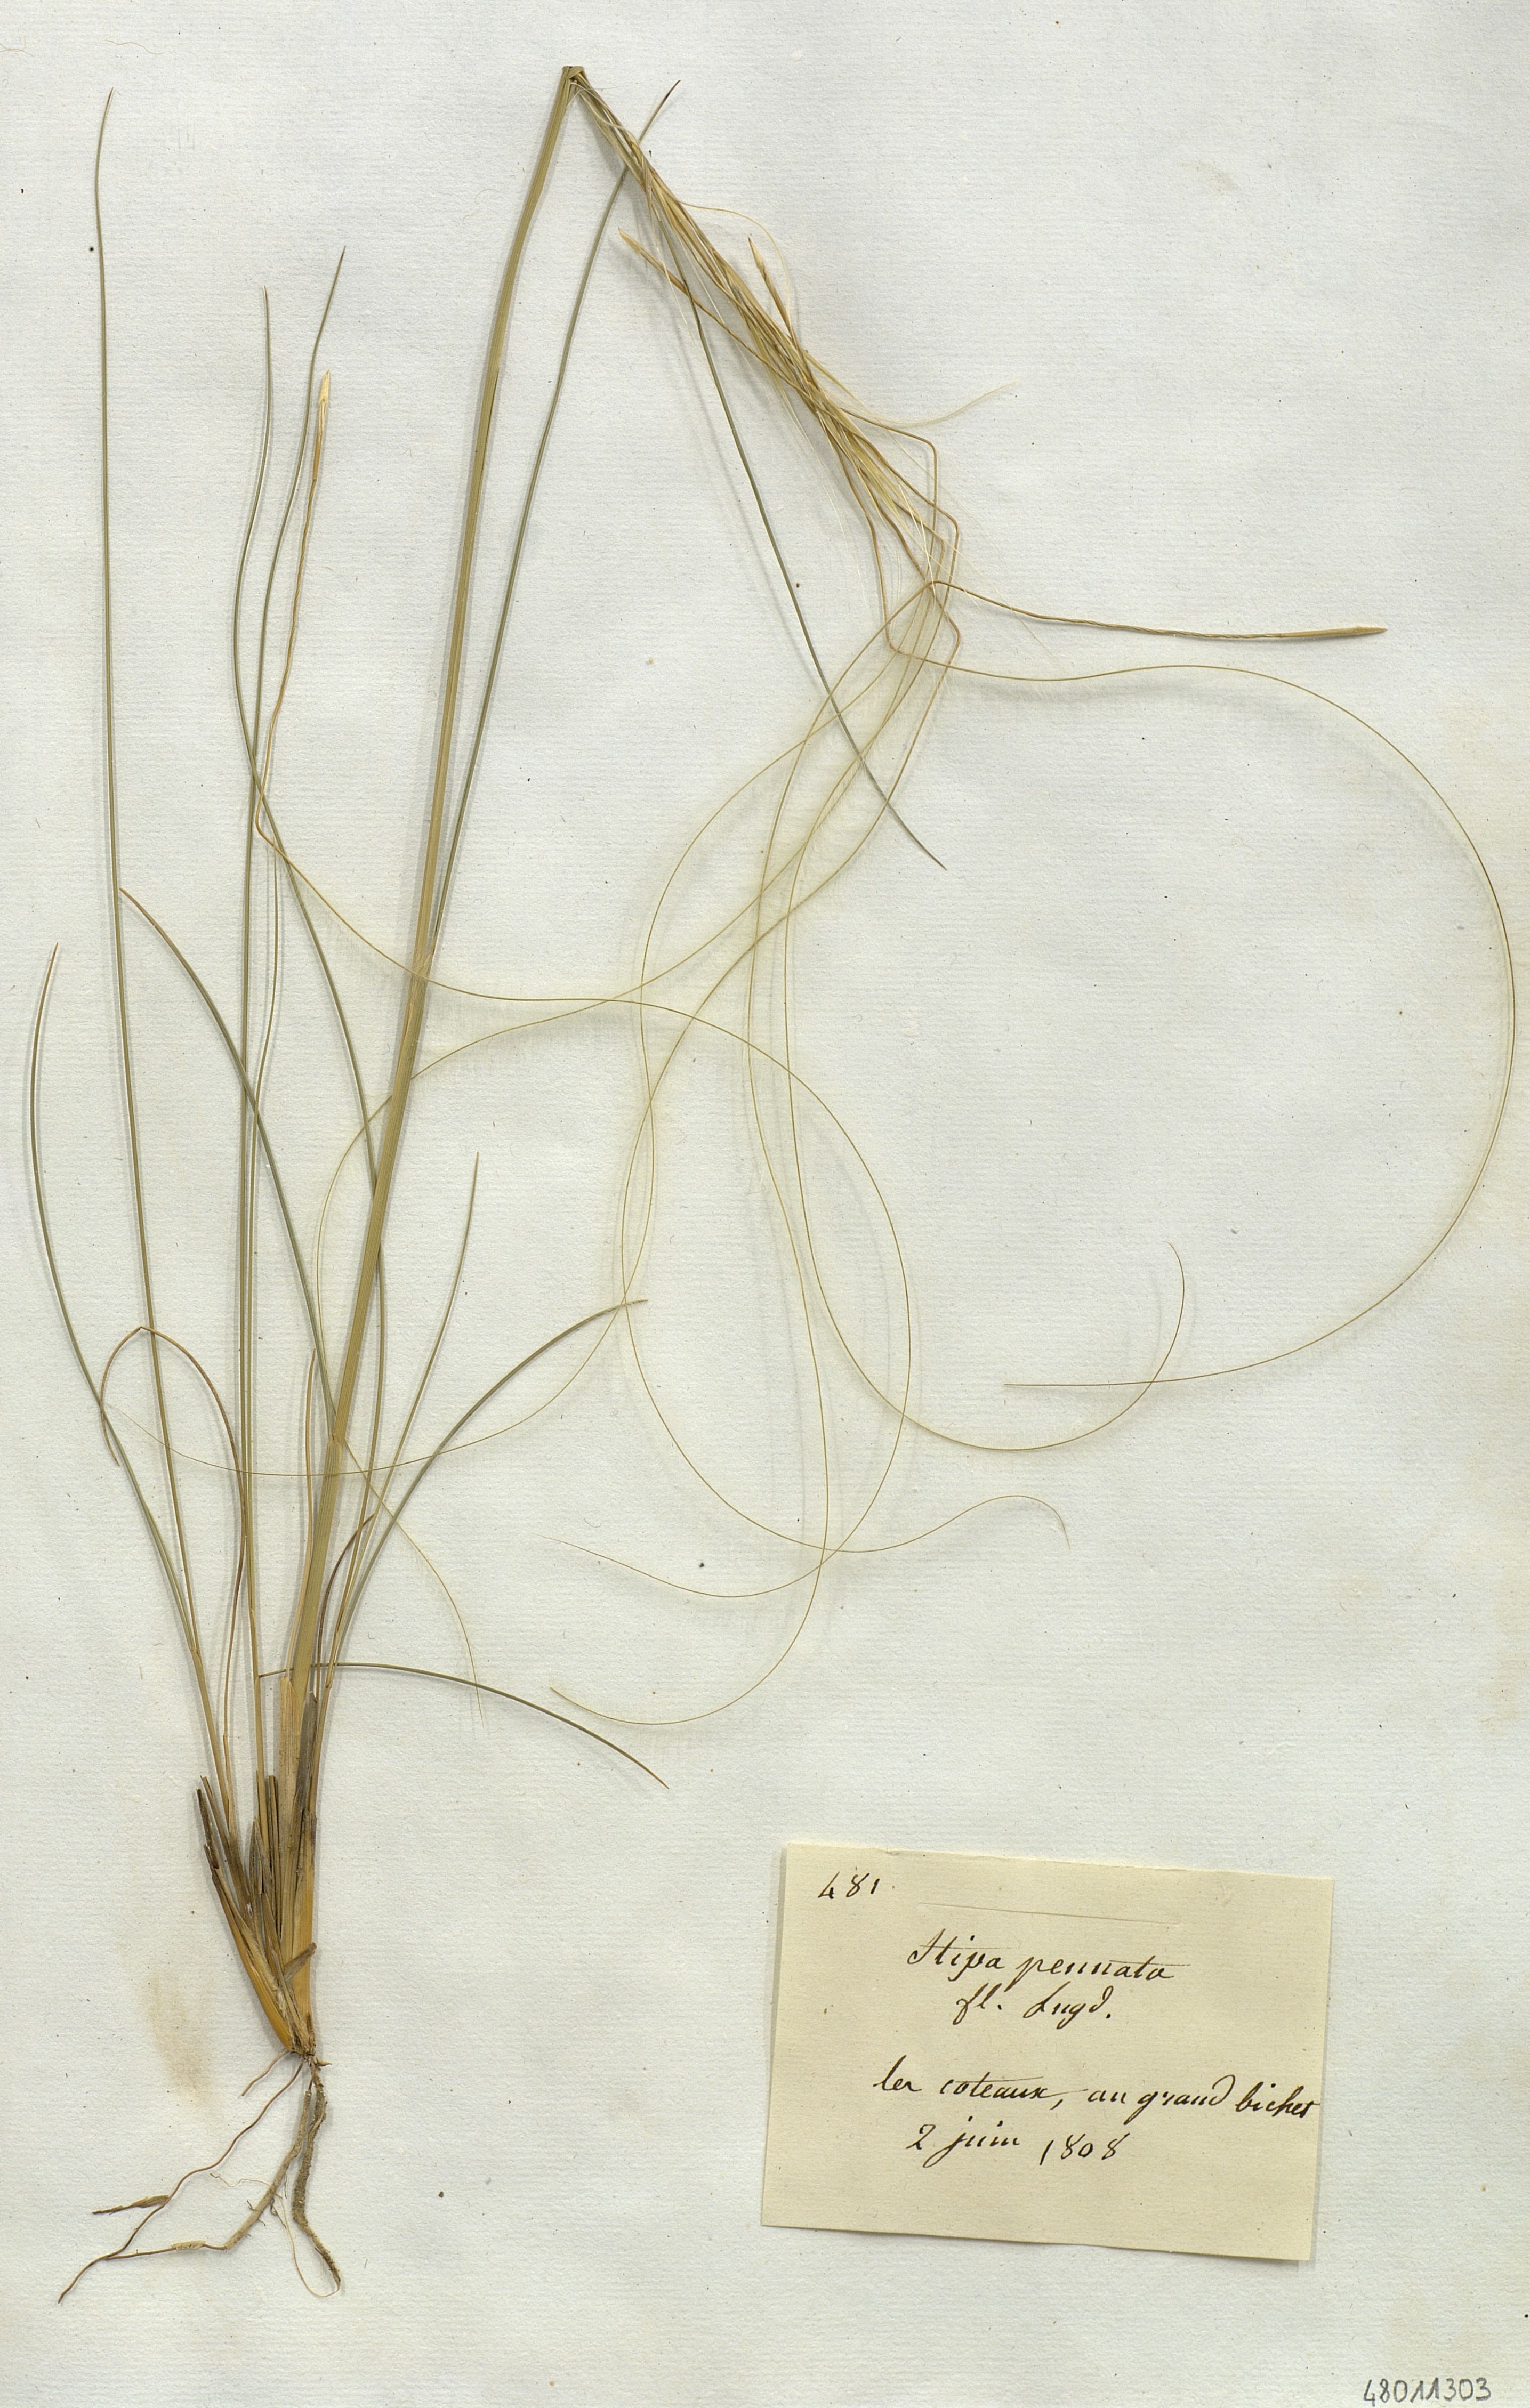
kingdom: Plantae
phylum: Tracheophyta
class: Liliopsida
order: Poales
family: Poaceae
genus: Stipa
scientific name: Stipa pennata
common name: European feather grass
